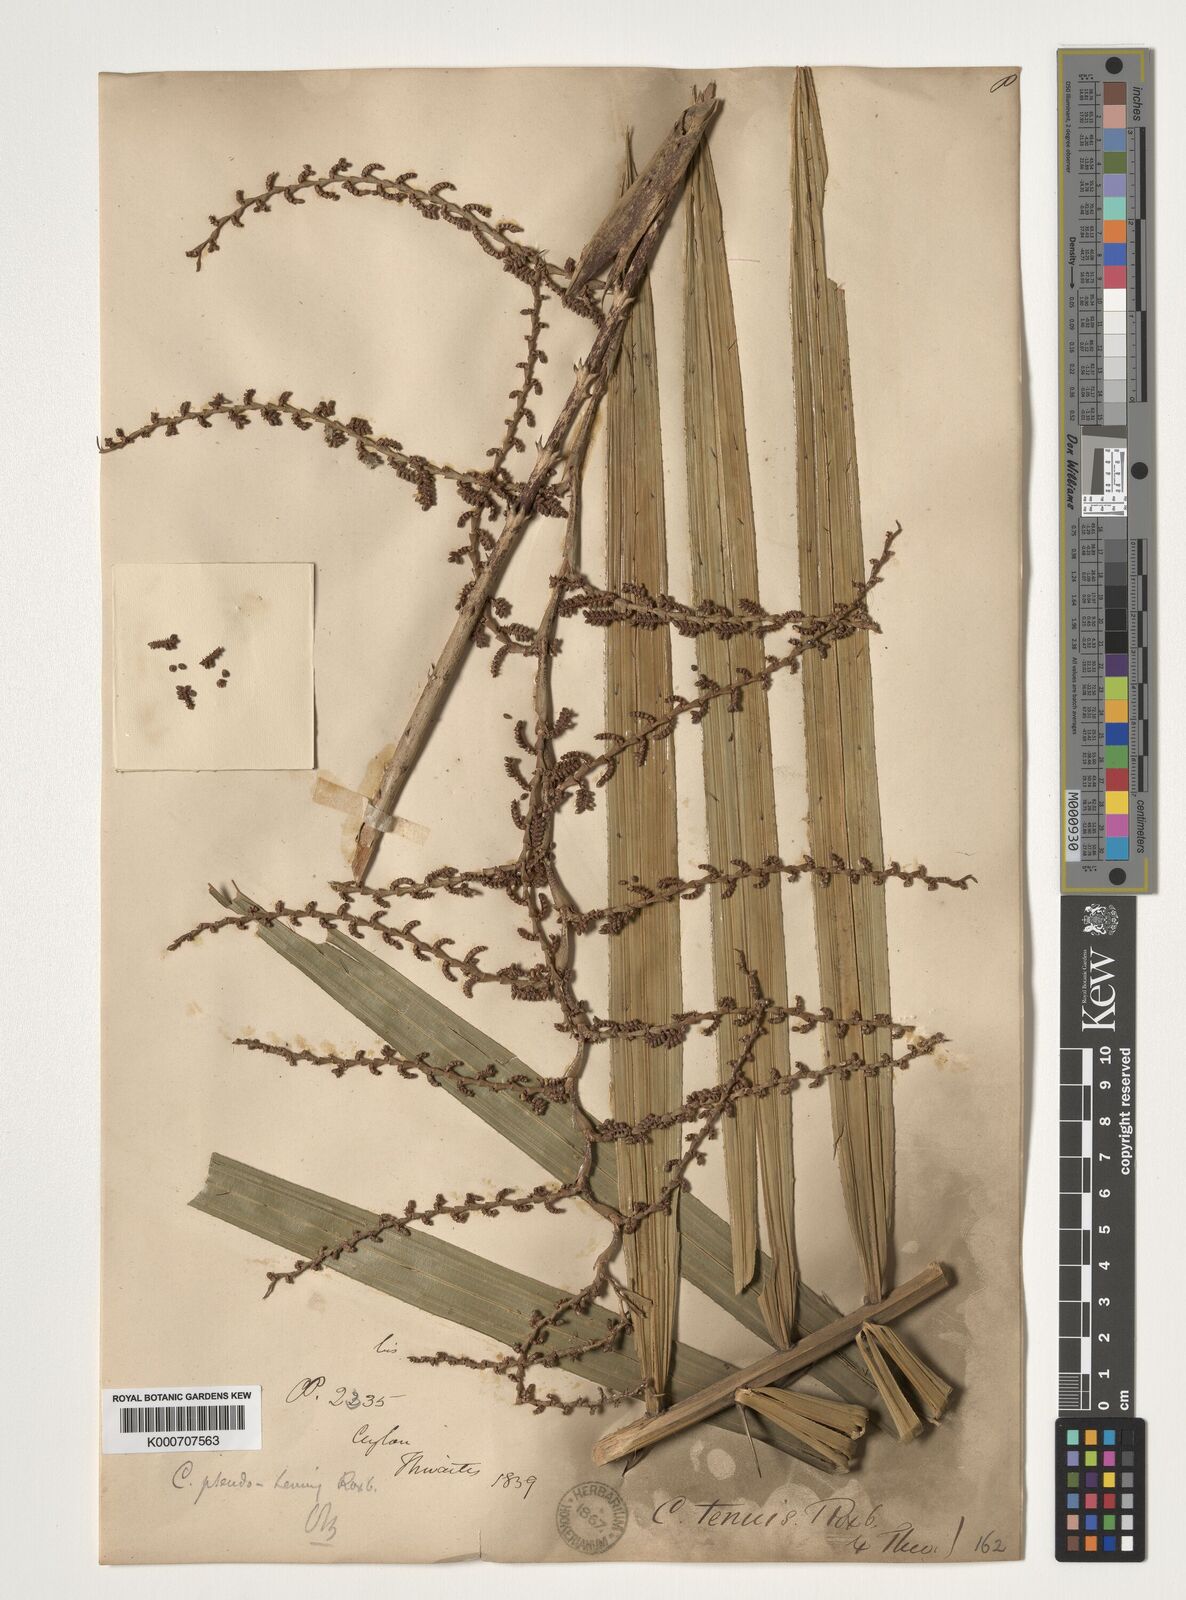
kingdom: Plantae
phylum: Tracheophyta
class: Liliopsida
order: Arecales
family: Arecaceae
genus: Calamus
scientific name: Calamus pseudotenuis
